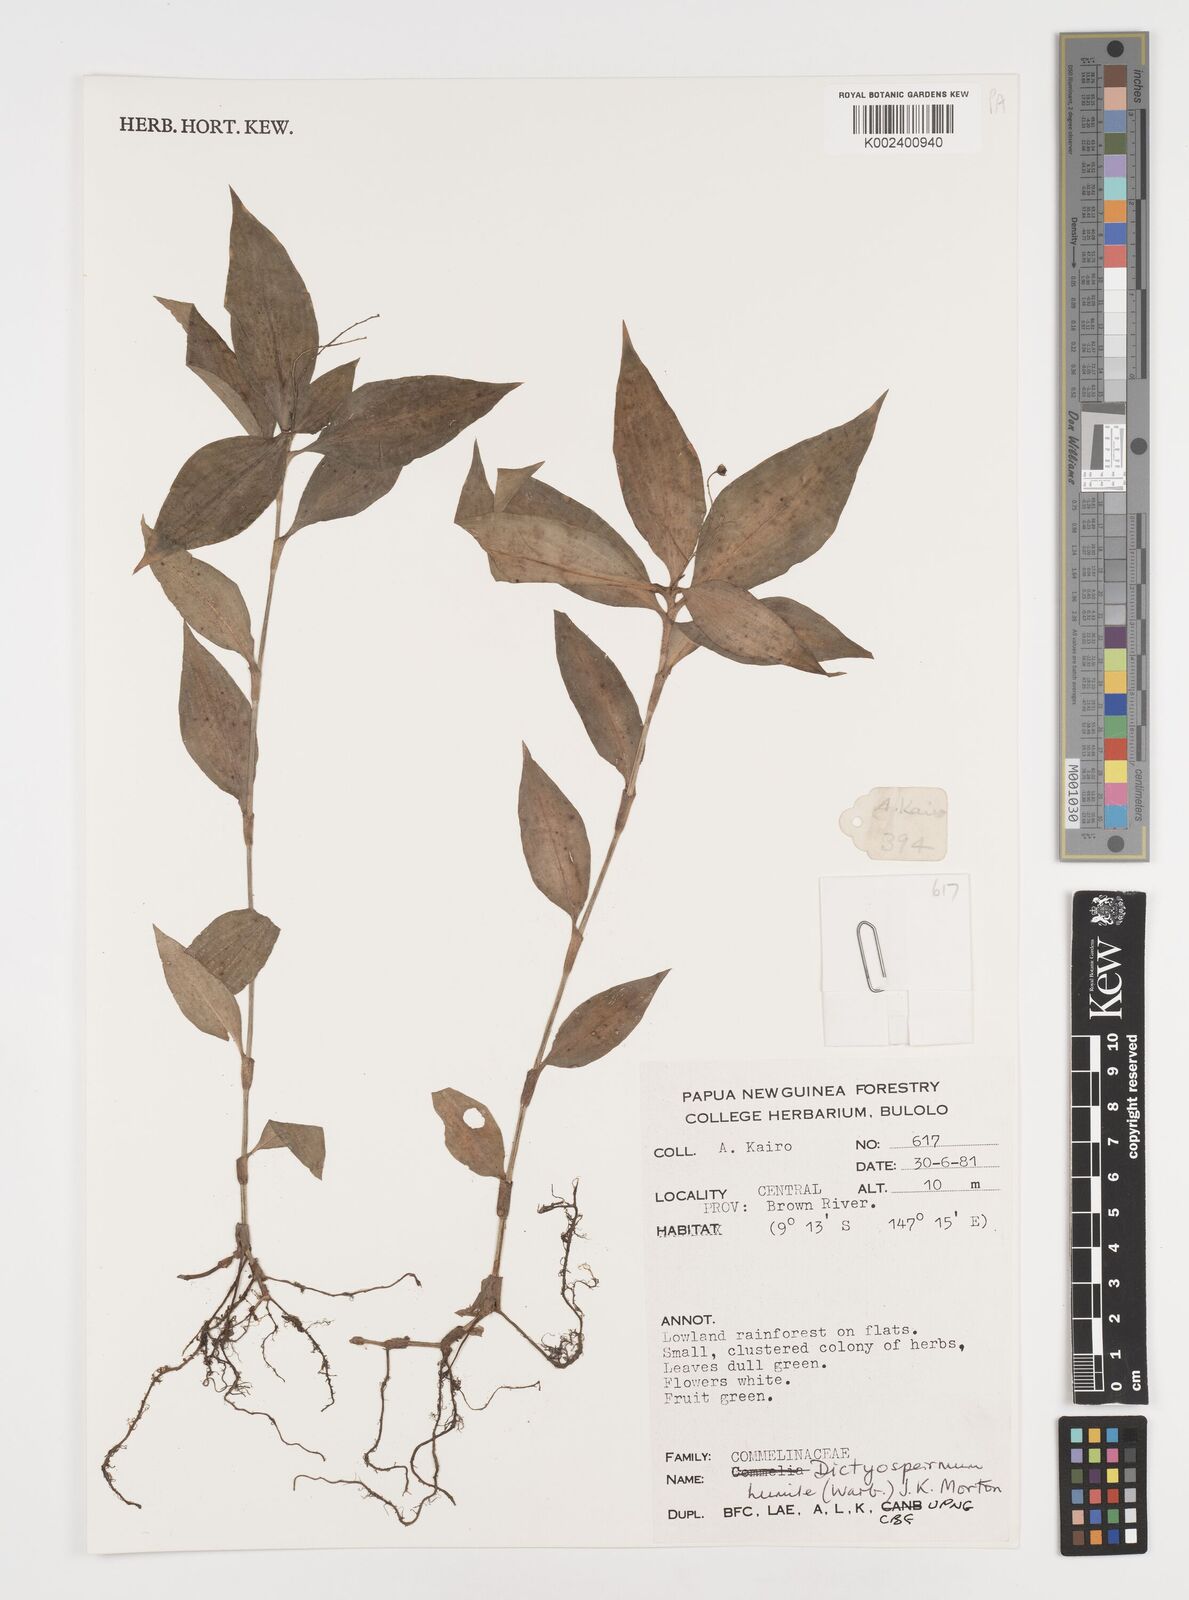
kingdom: Plantae
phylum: Tracheophyta
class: Liliopsida
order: Commelinales
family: Commelinaceae
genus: Dictyospermum
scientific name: Dictyospermum humile
